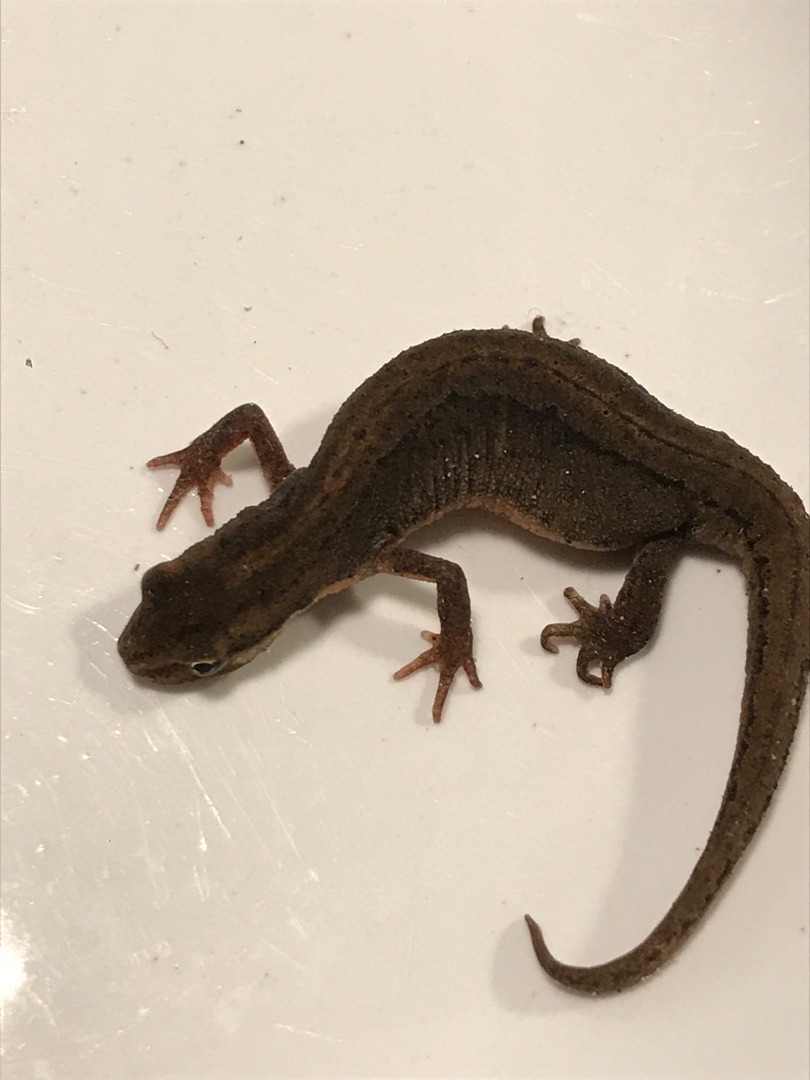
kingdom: Animalia
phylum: Chordata
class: Amphibia
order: Caudata
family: Salamandridae
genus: Lissotriton
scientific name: Lissotriton vulgaris
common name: Lille vandsalamander
